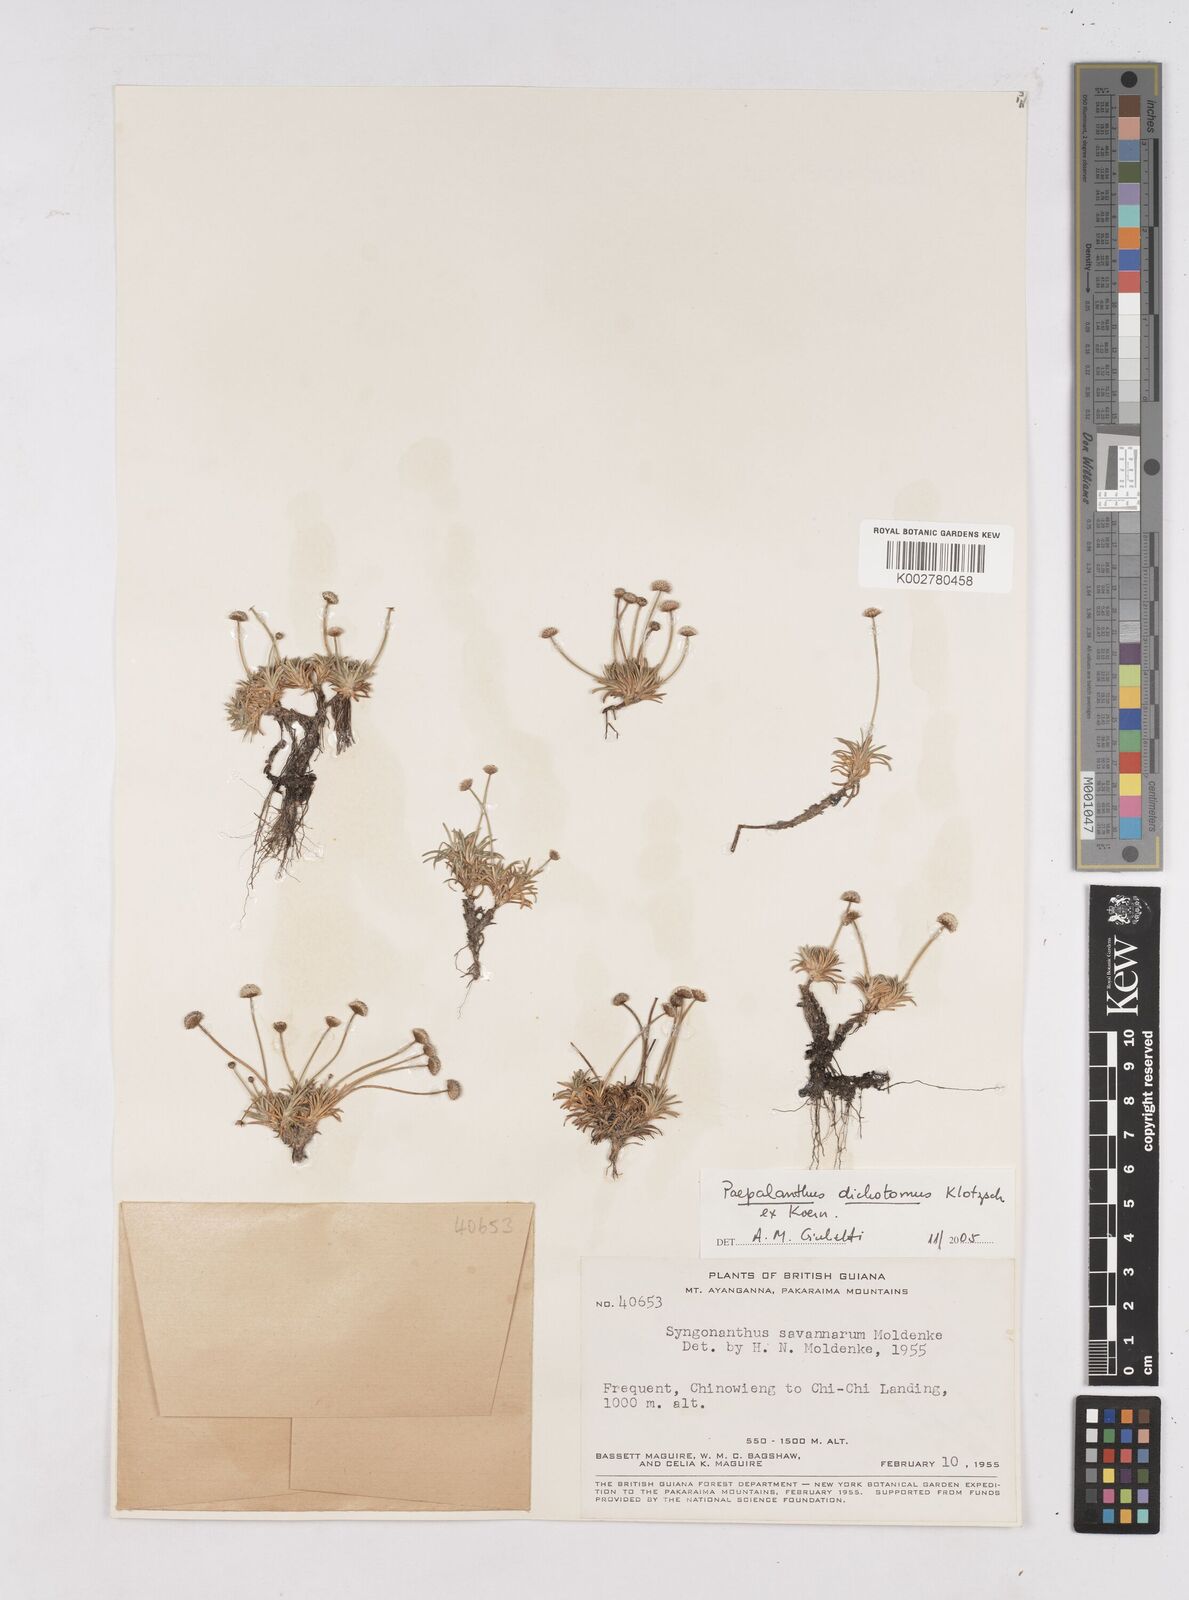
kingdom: Plantae
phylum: Tracheophyta
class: Liliopsida
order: Poales
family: Eriocaulaceae
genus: Paepalanthus
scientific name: Paepalanthus dichotomus
